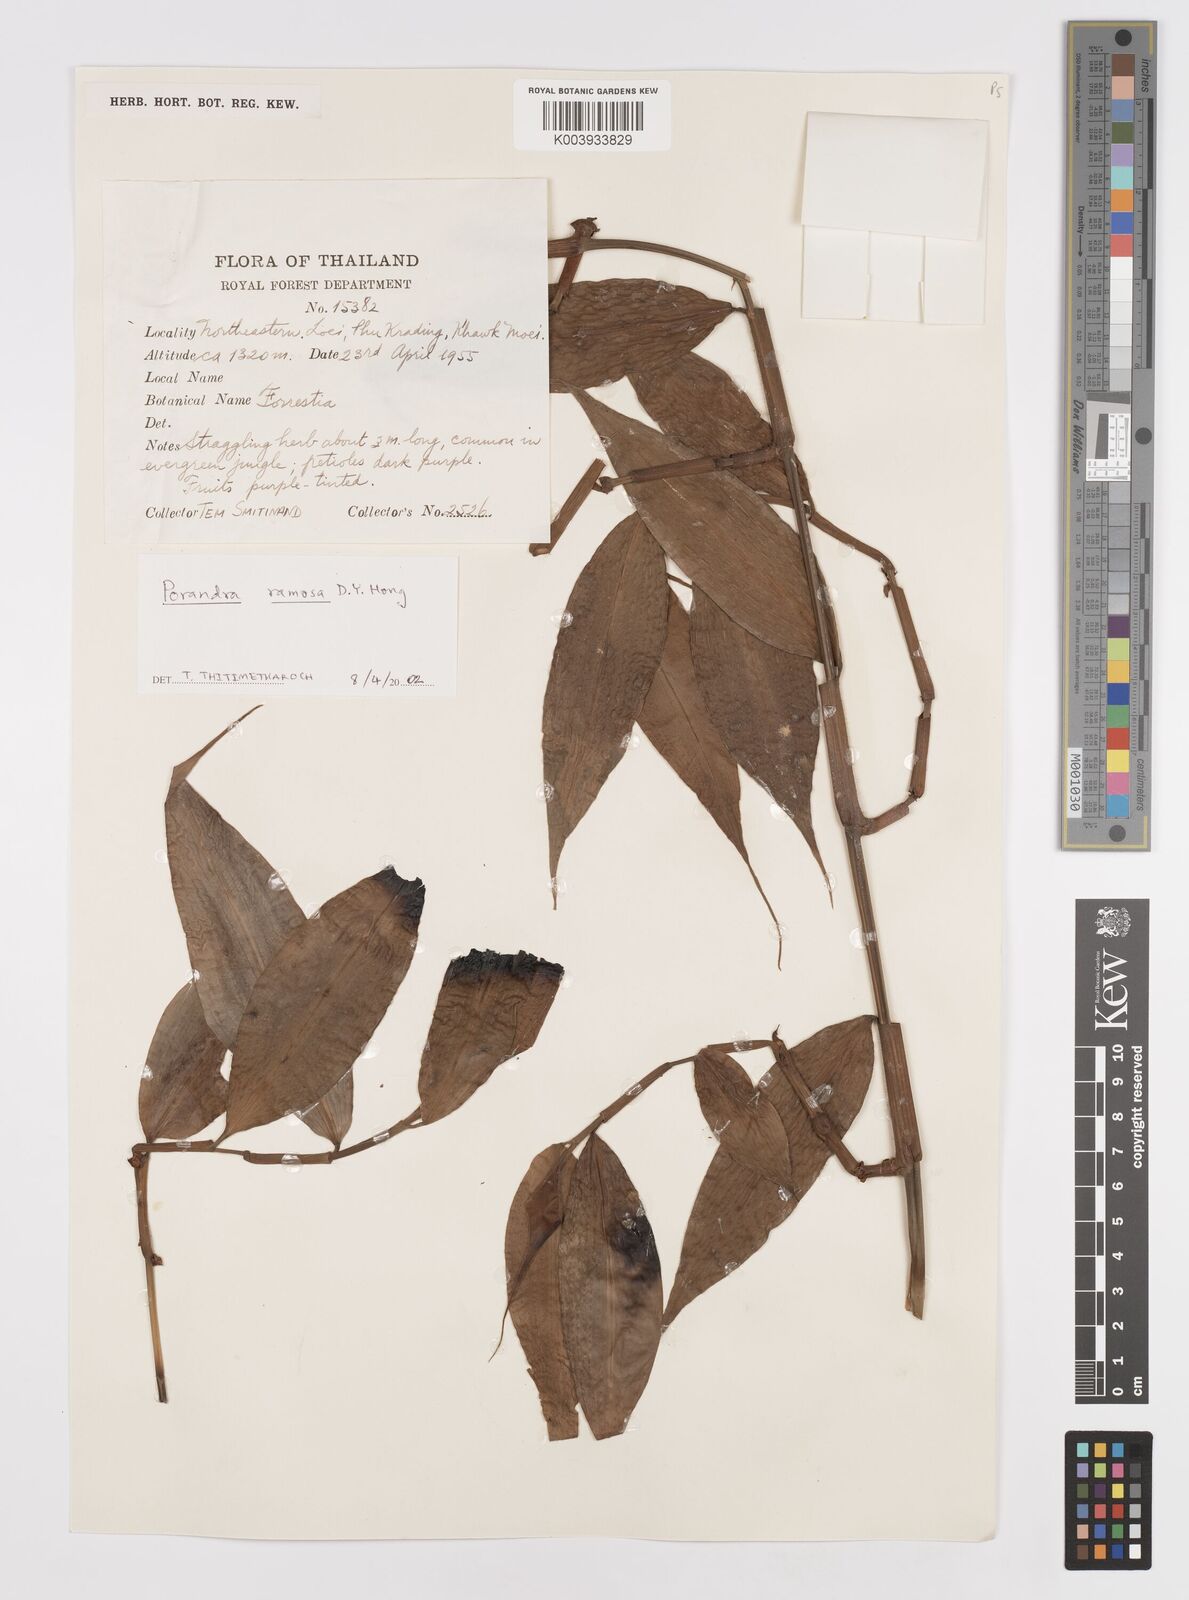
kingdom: Plantae
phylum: Tracheophyta
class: Liliopsida
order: Commelinales
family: Commelinaceae
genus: Amischotolype
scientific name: Amischotolype glabrata
